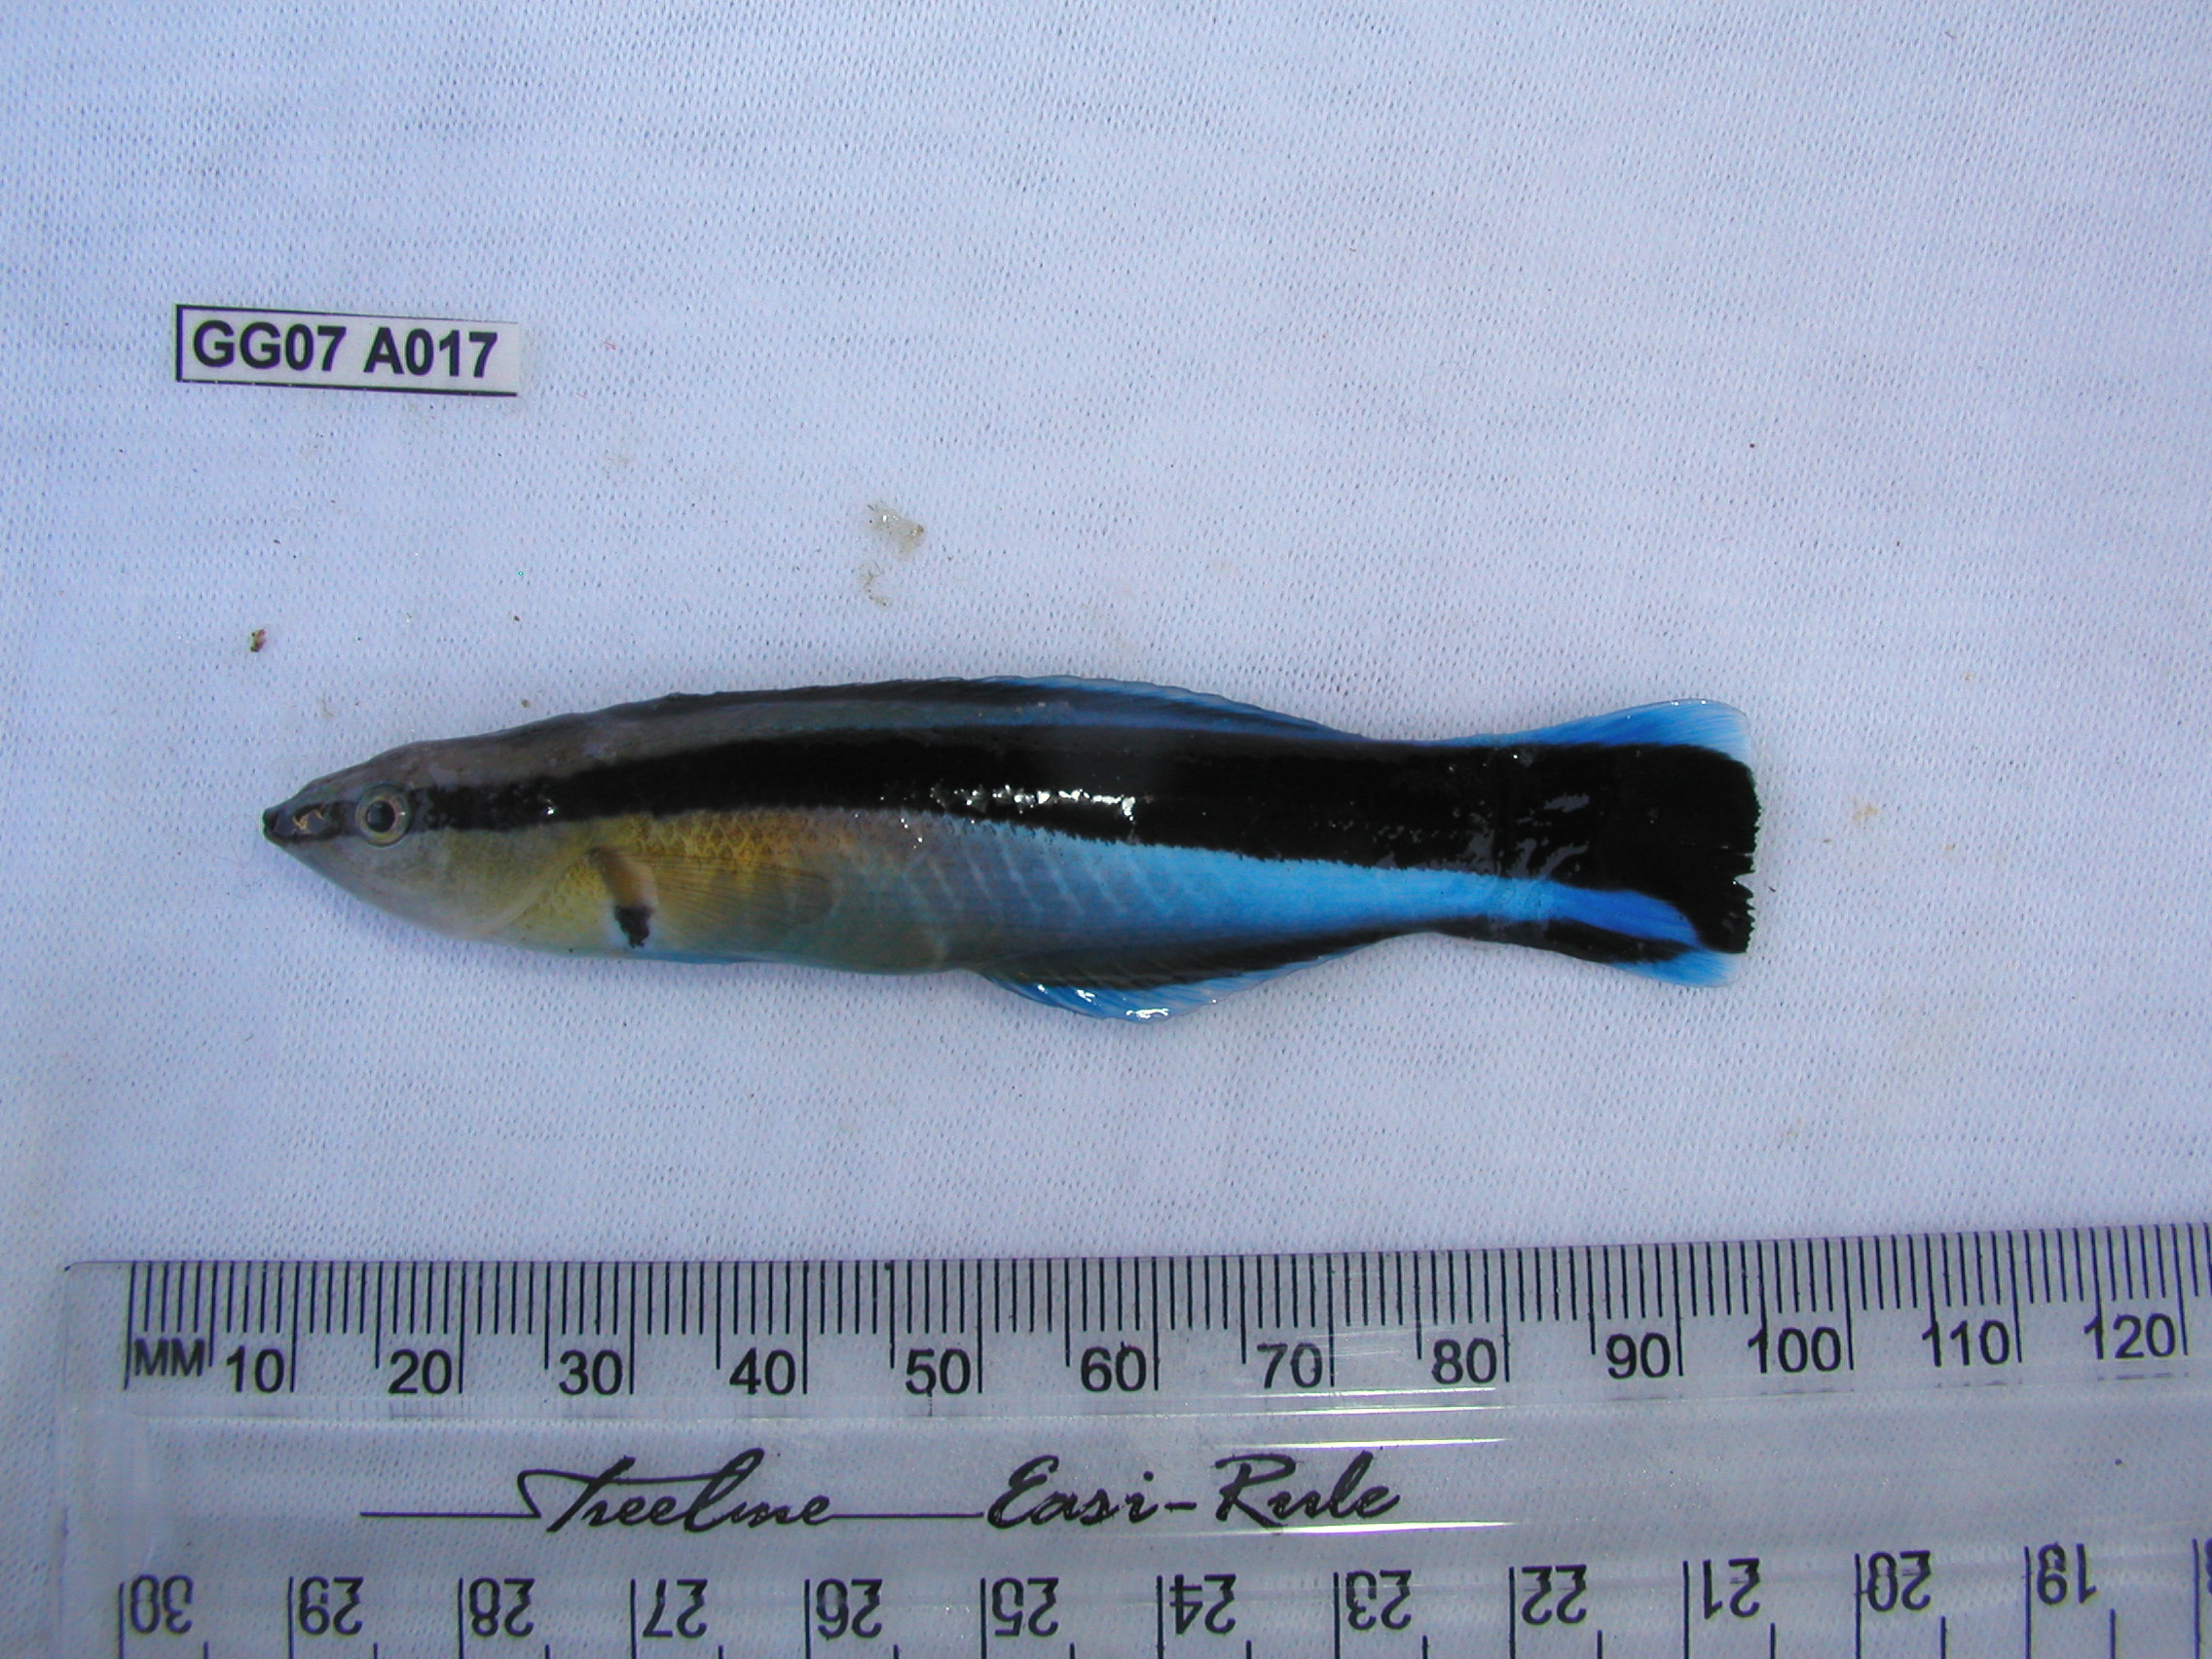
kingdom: Animalia
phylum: Chordata
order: Perciformes
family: Labridae
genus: Labroides
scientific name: Labroides dimidiatus
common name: Blue diesel wrasse
